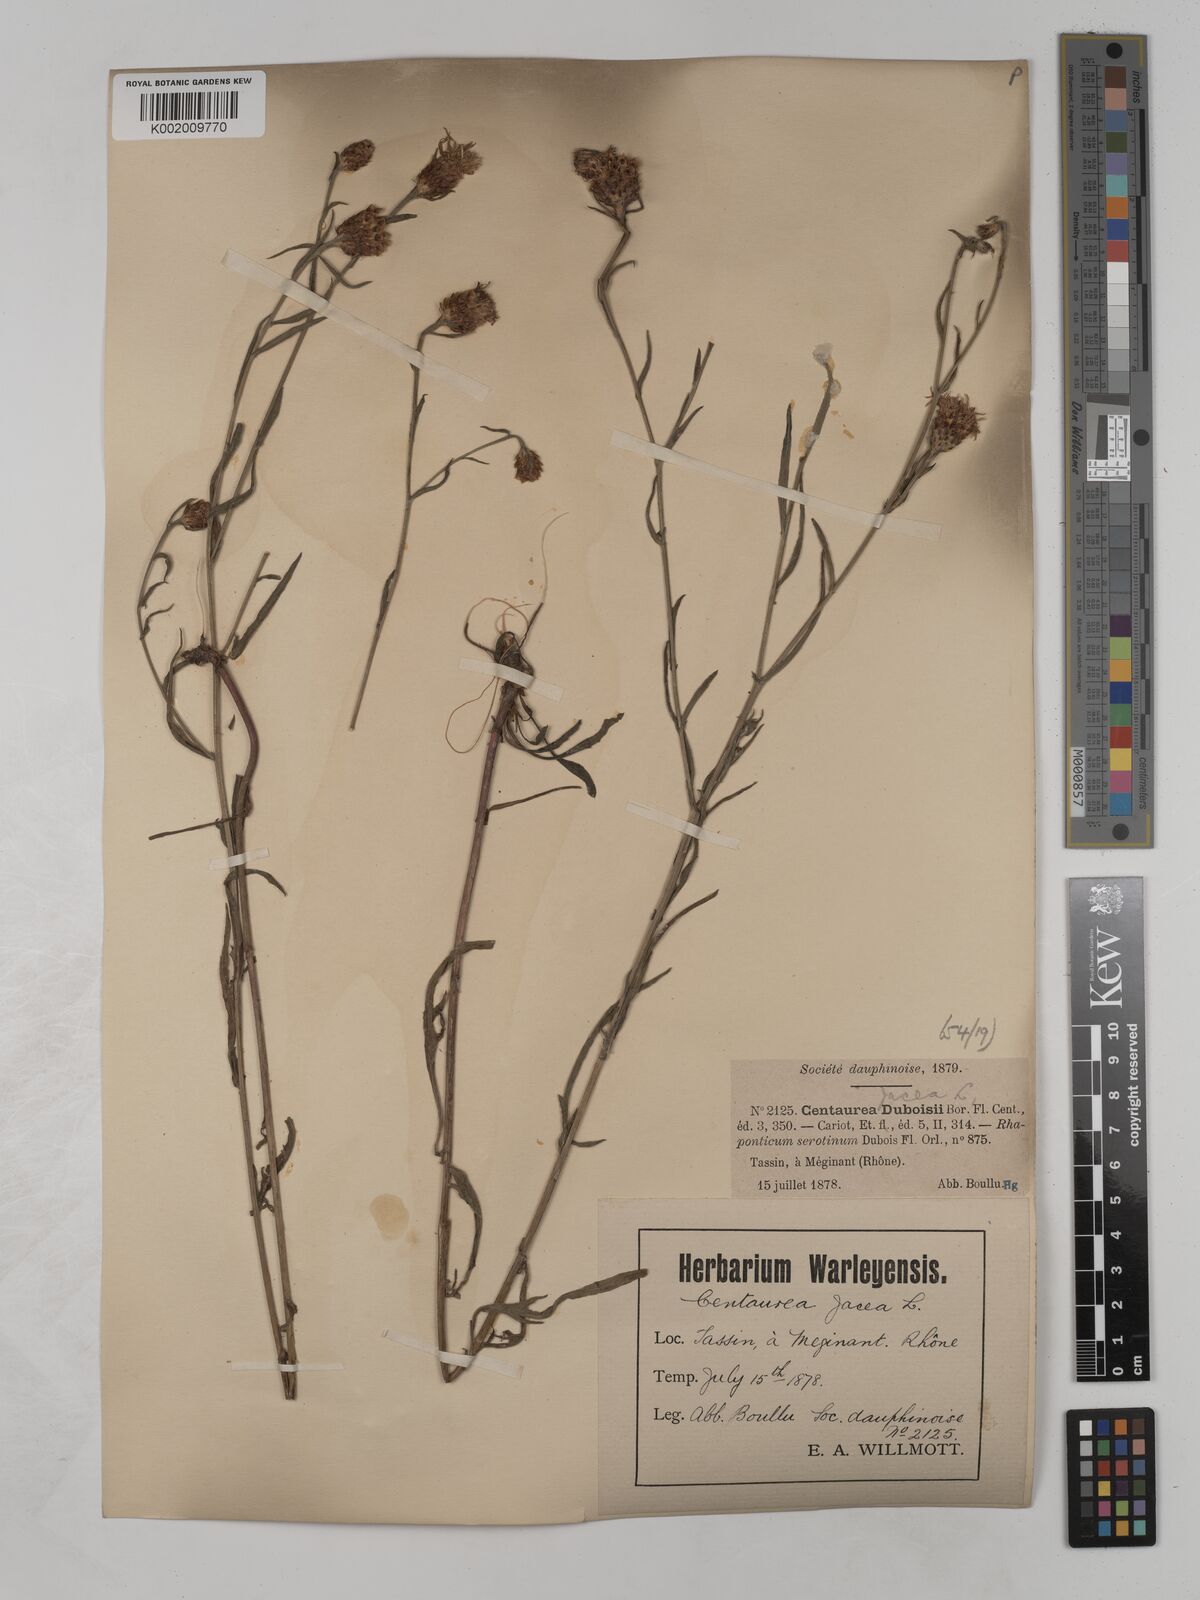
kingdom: Plantae
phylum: Tracheophyta
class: Magnoliopsida
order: Asterales
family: Asteraceae
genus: Centaurea
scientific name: Centaurea timbalii
